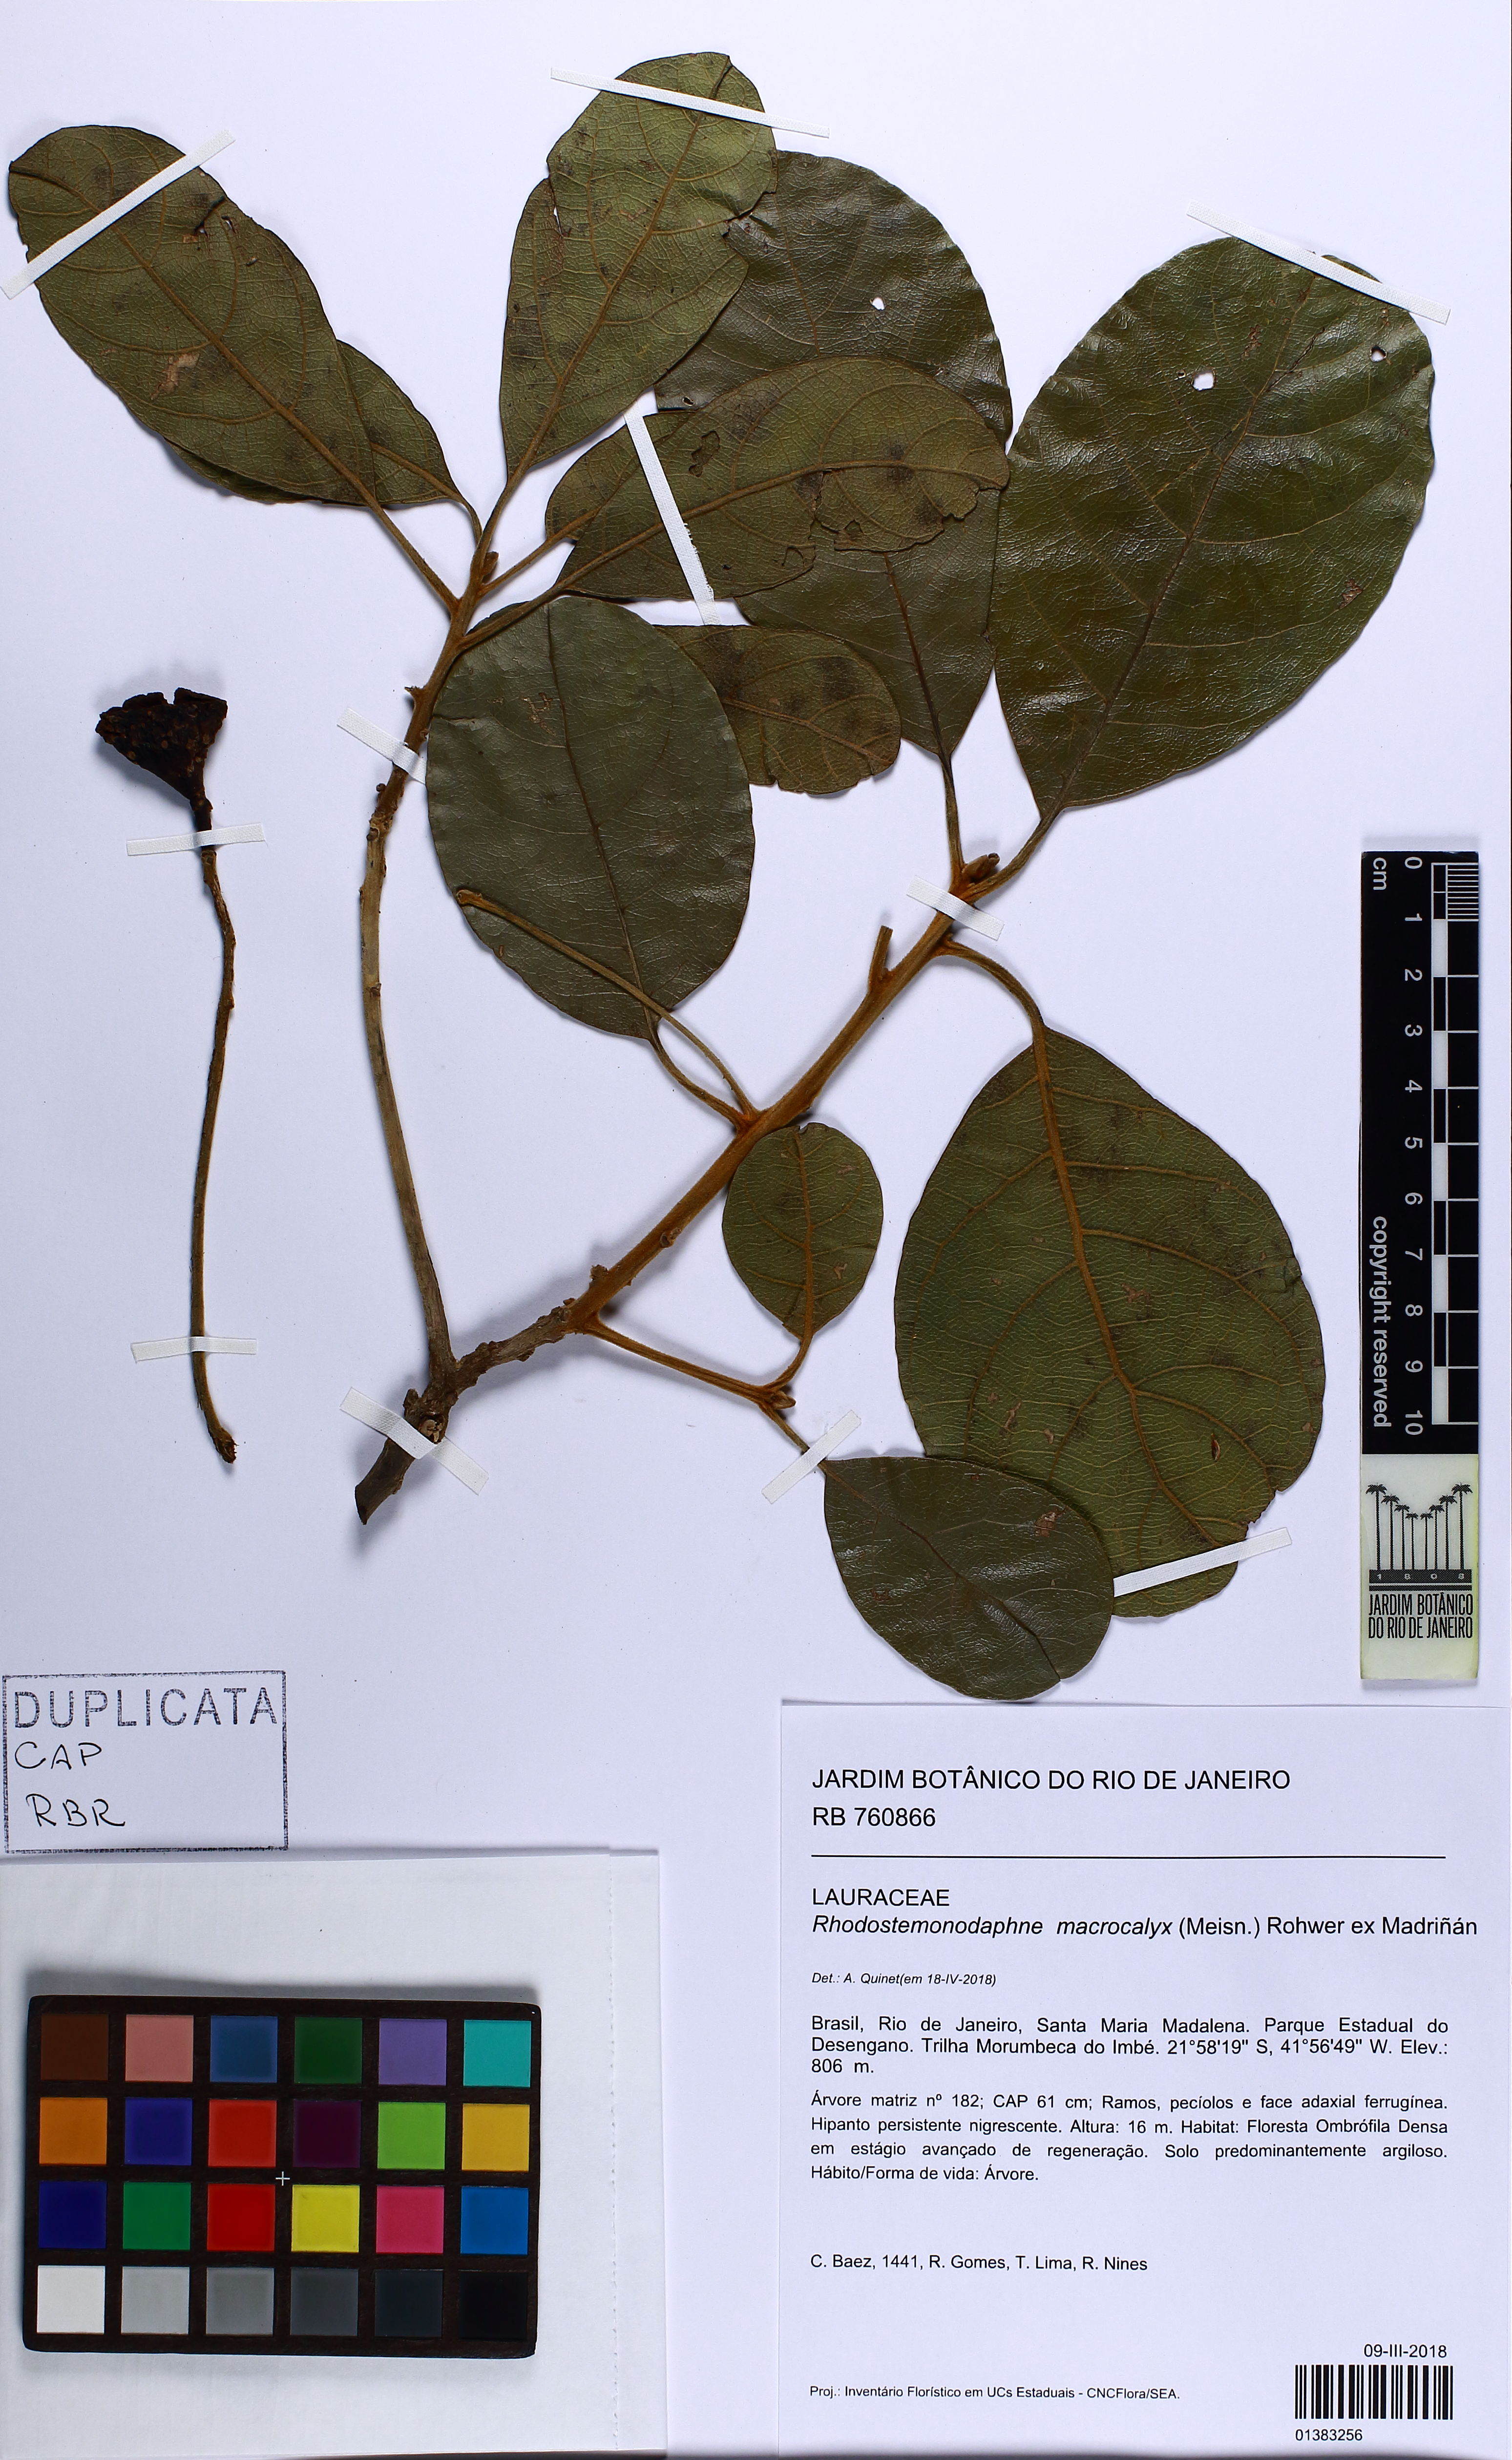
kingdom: Plantae
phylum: Tracheophyta
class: Magnoliopsida
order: Laurales
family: Lauraceae
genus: Rhodostemonodaphne
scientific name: Rhodostemonodaphne macrocalyx
